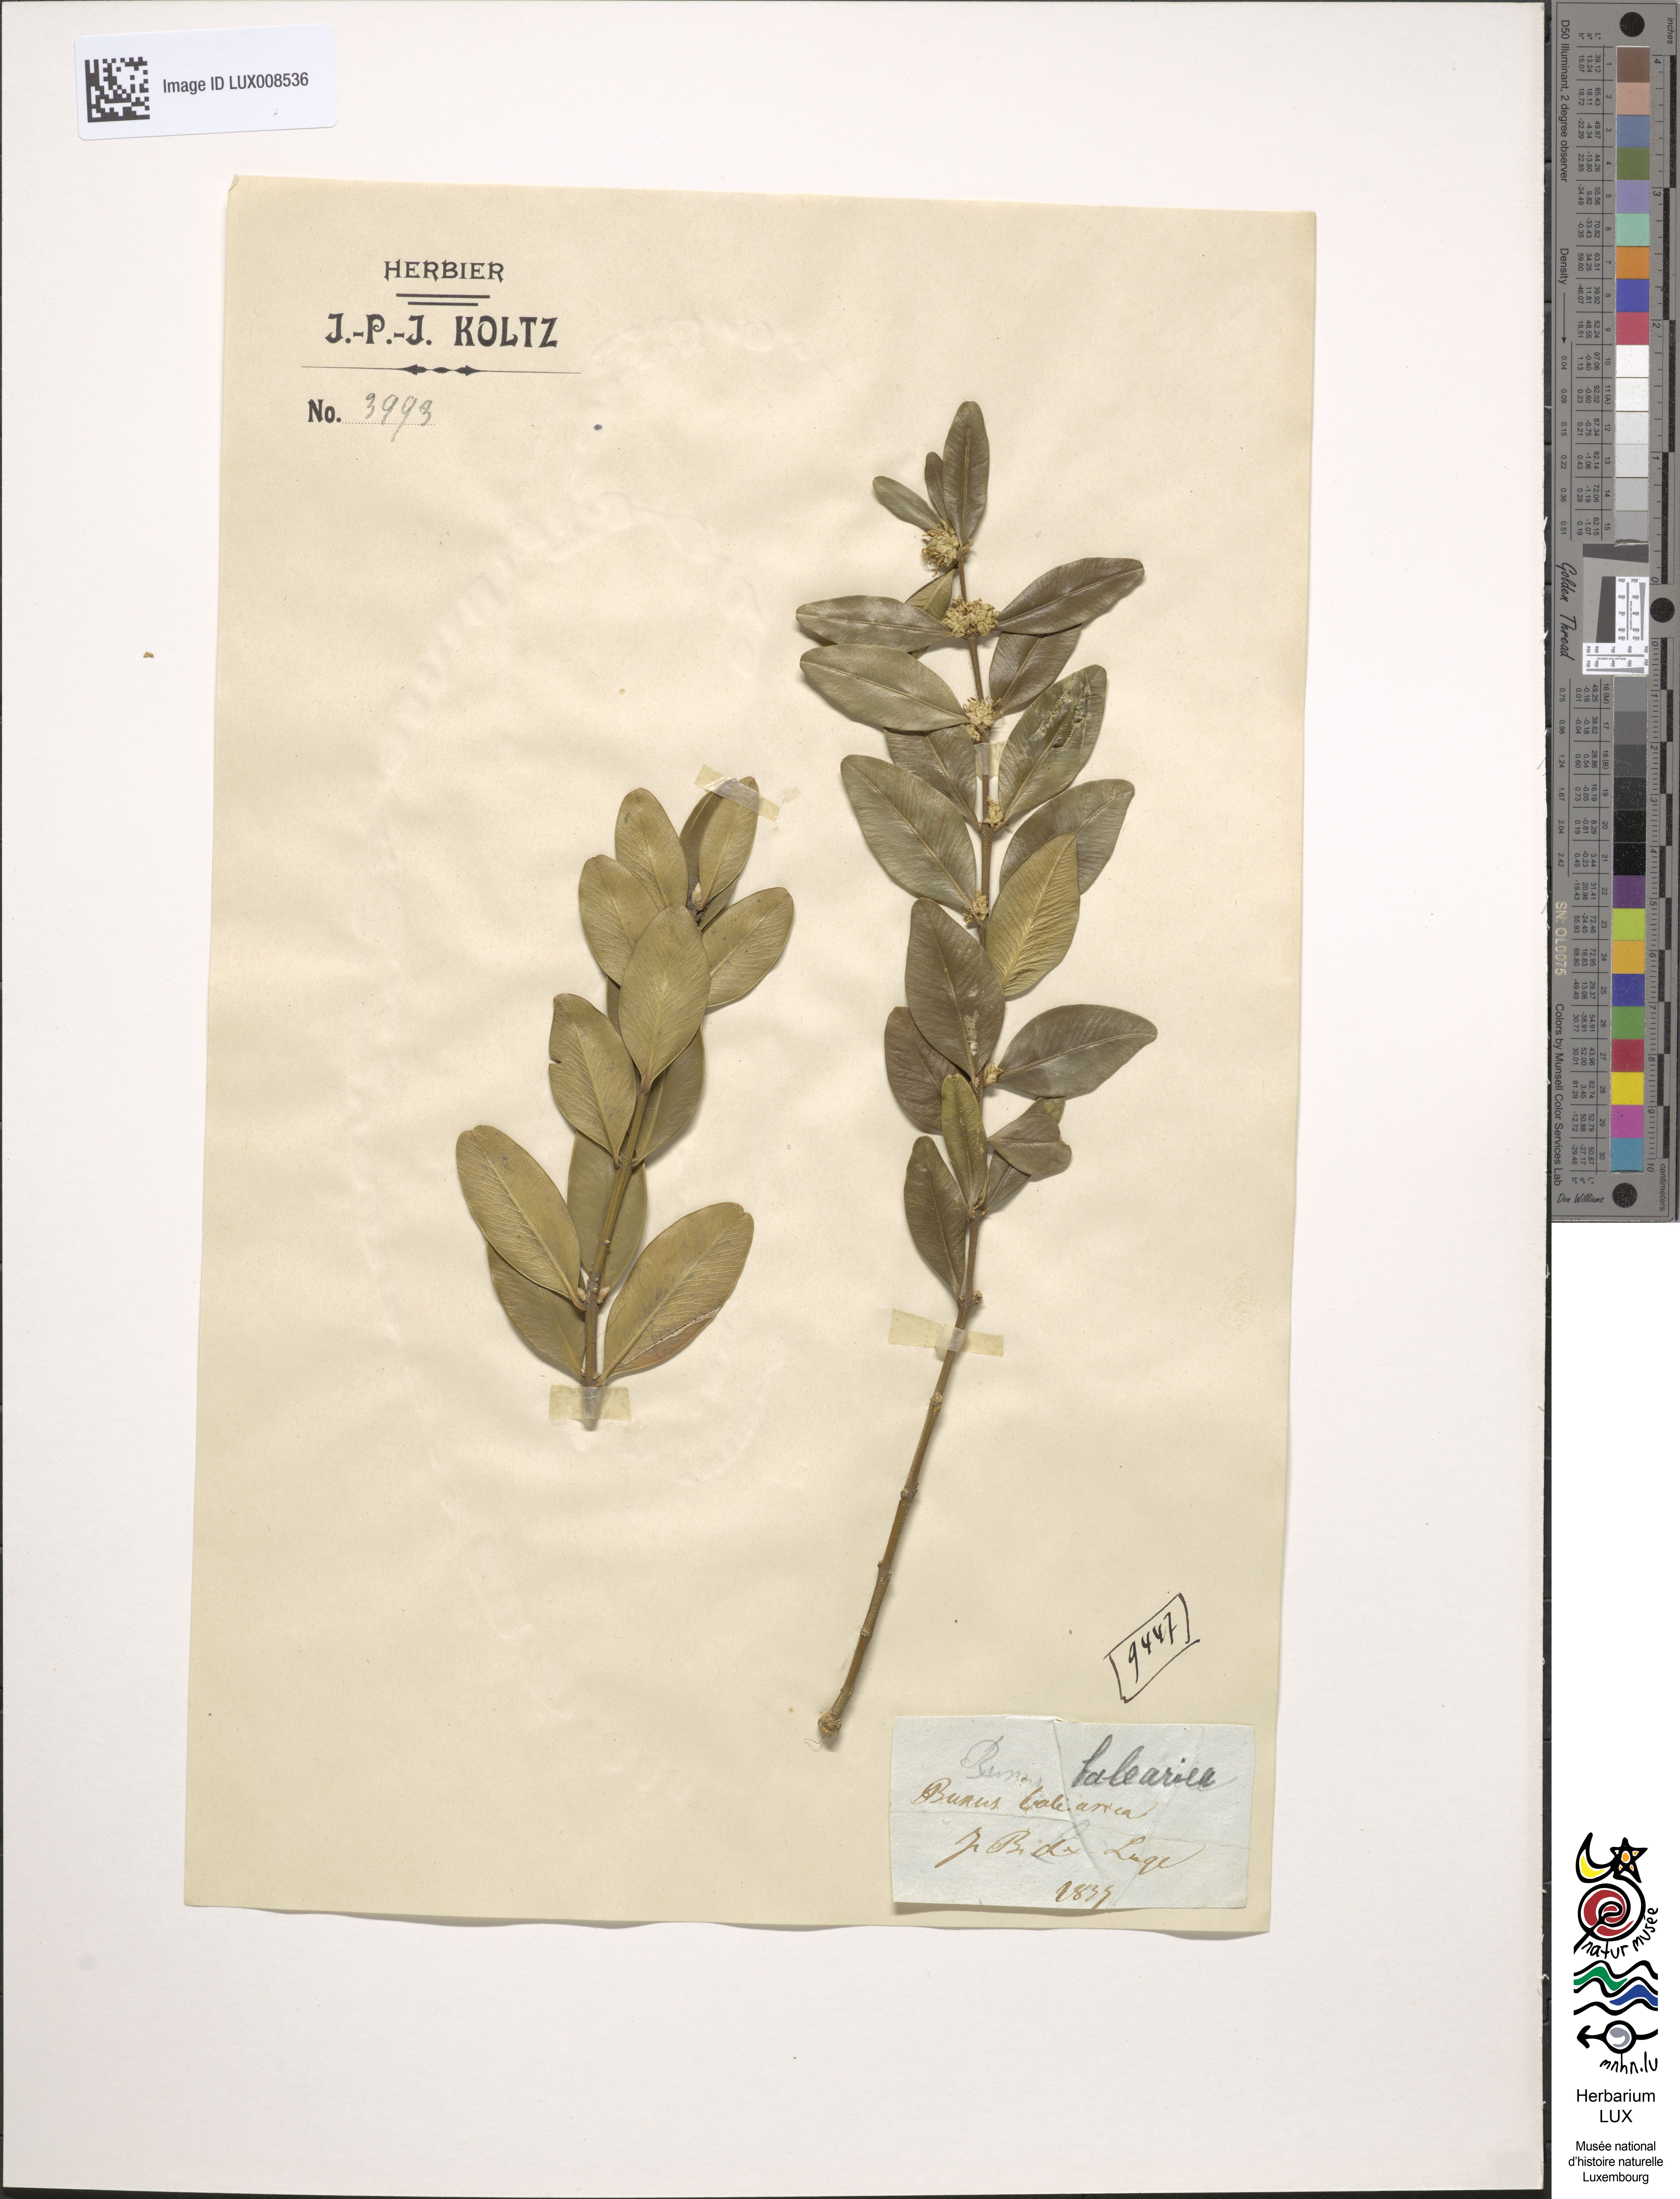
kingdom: Plantae
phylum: Tracheophyta
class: Magnoliopsida
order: Buxales
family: Buxaceae
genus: Buxus
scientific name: Buxus balearica
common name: Balearic box
